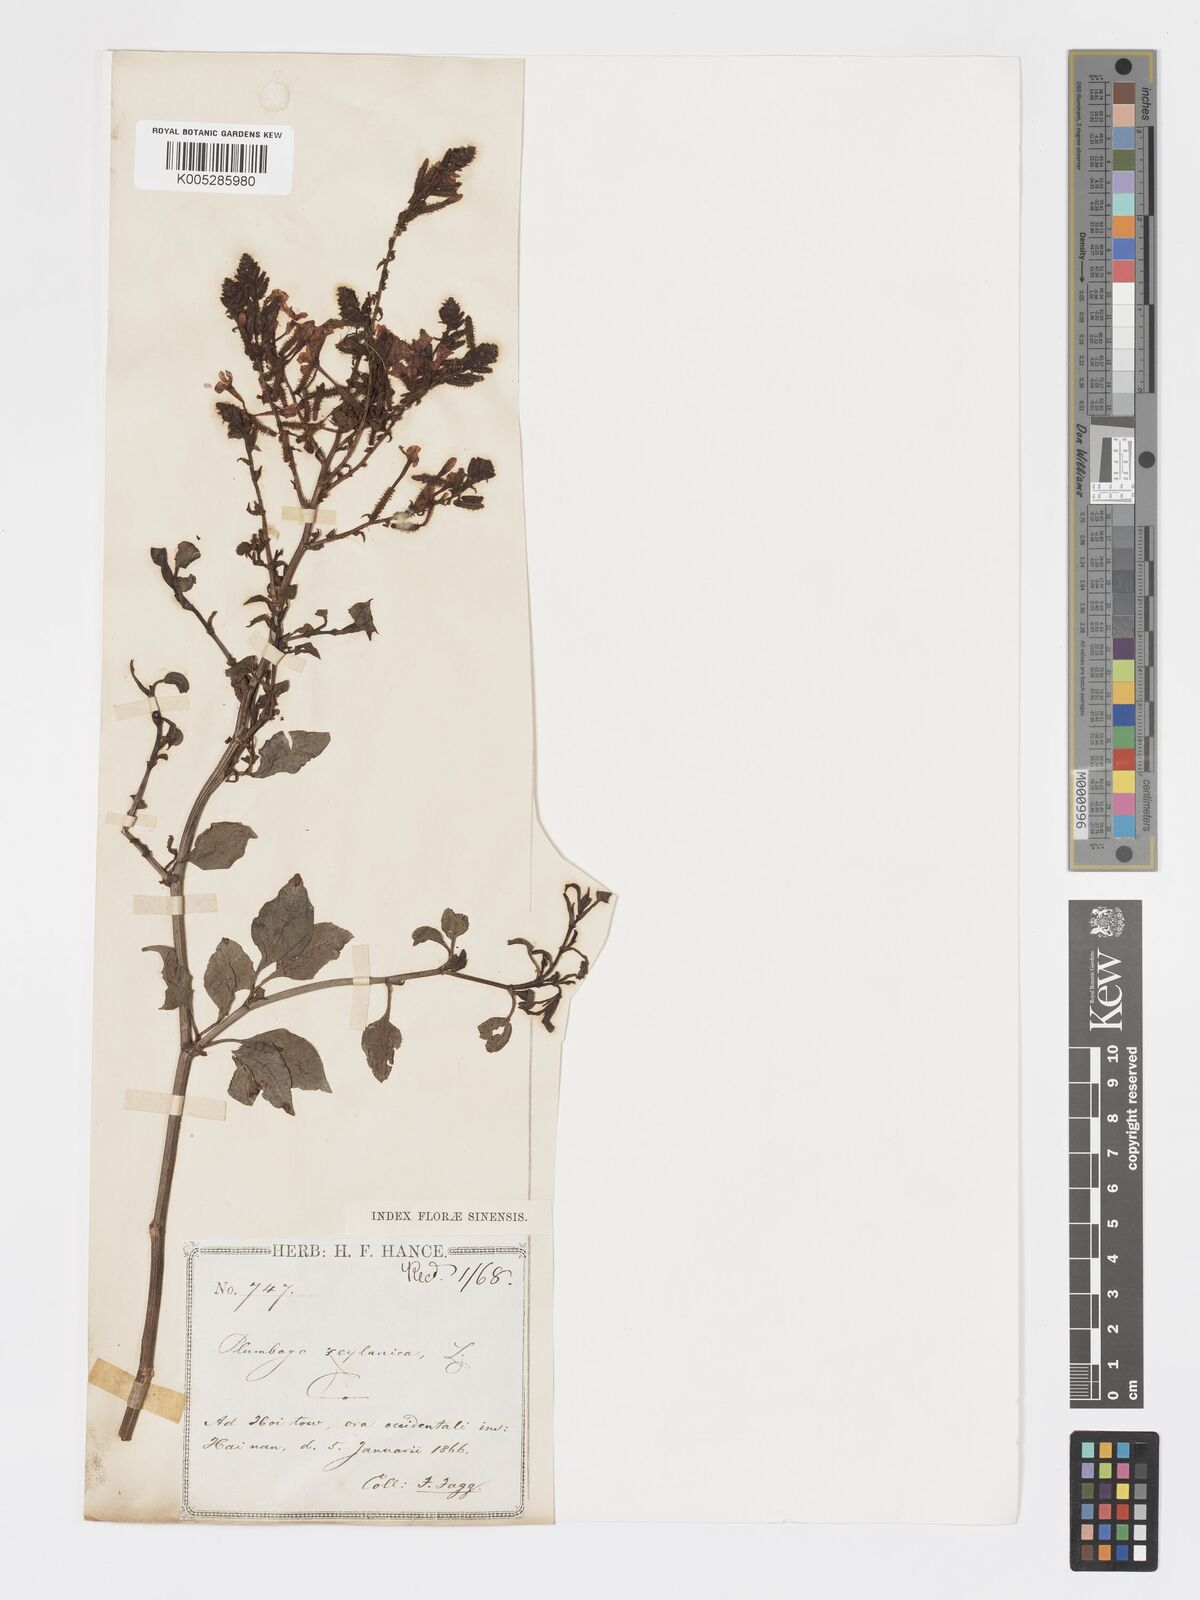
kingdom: Plantae
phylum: Tracheophyta
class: Magnoliopsida
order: Caryophyllales
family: Plumbaginaceae
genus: Plumbago
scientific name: Plumbago zeylanica
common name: Doctorbush
